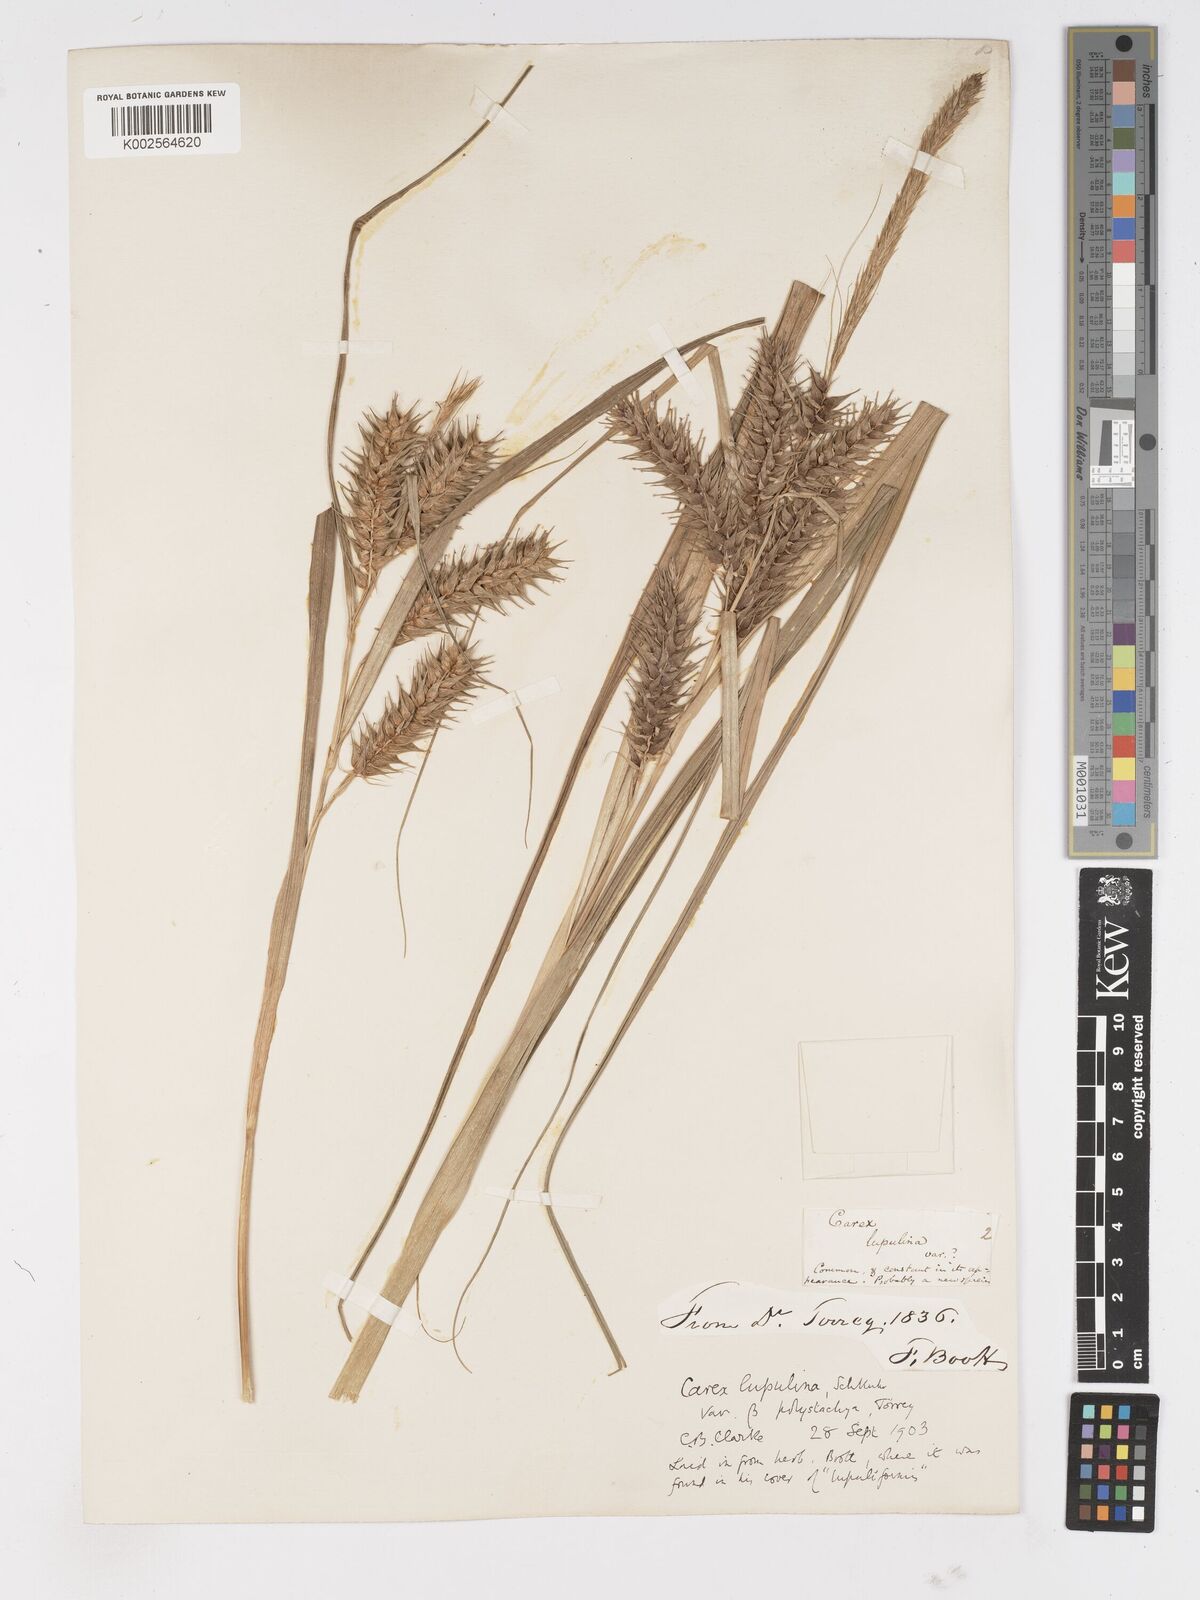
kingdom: Plantae
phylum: Tracheophyta
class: Liliopsida
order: Poales
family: Cyperaceae
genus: Carex
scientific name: Carex lupuliformis
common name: False hop sedge
